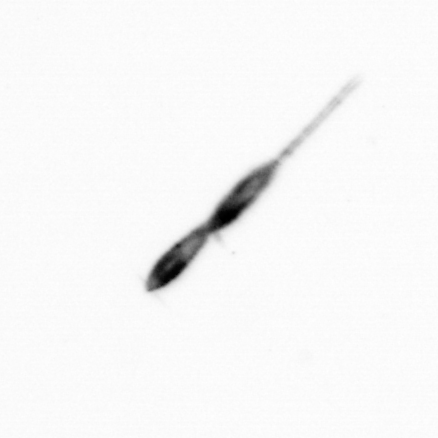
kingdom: Animalia
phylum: Arthropoda
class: Copepoda
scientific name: Copepoda
